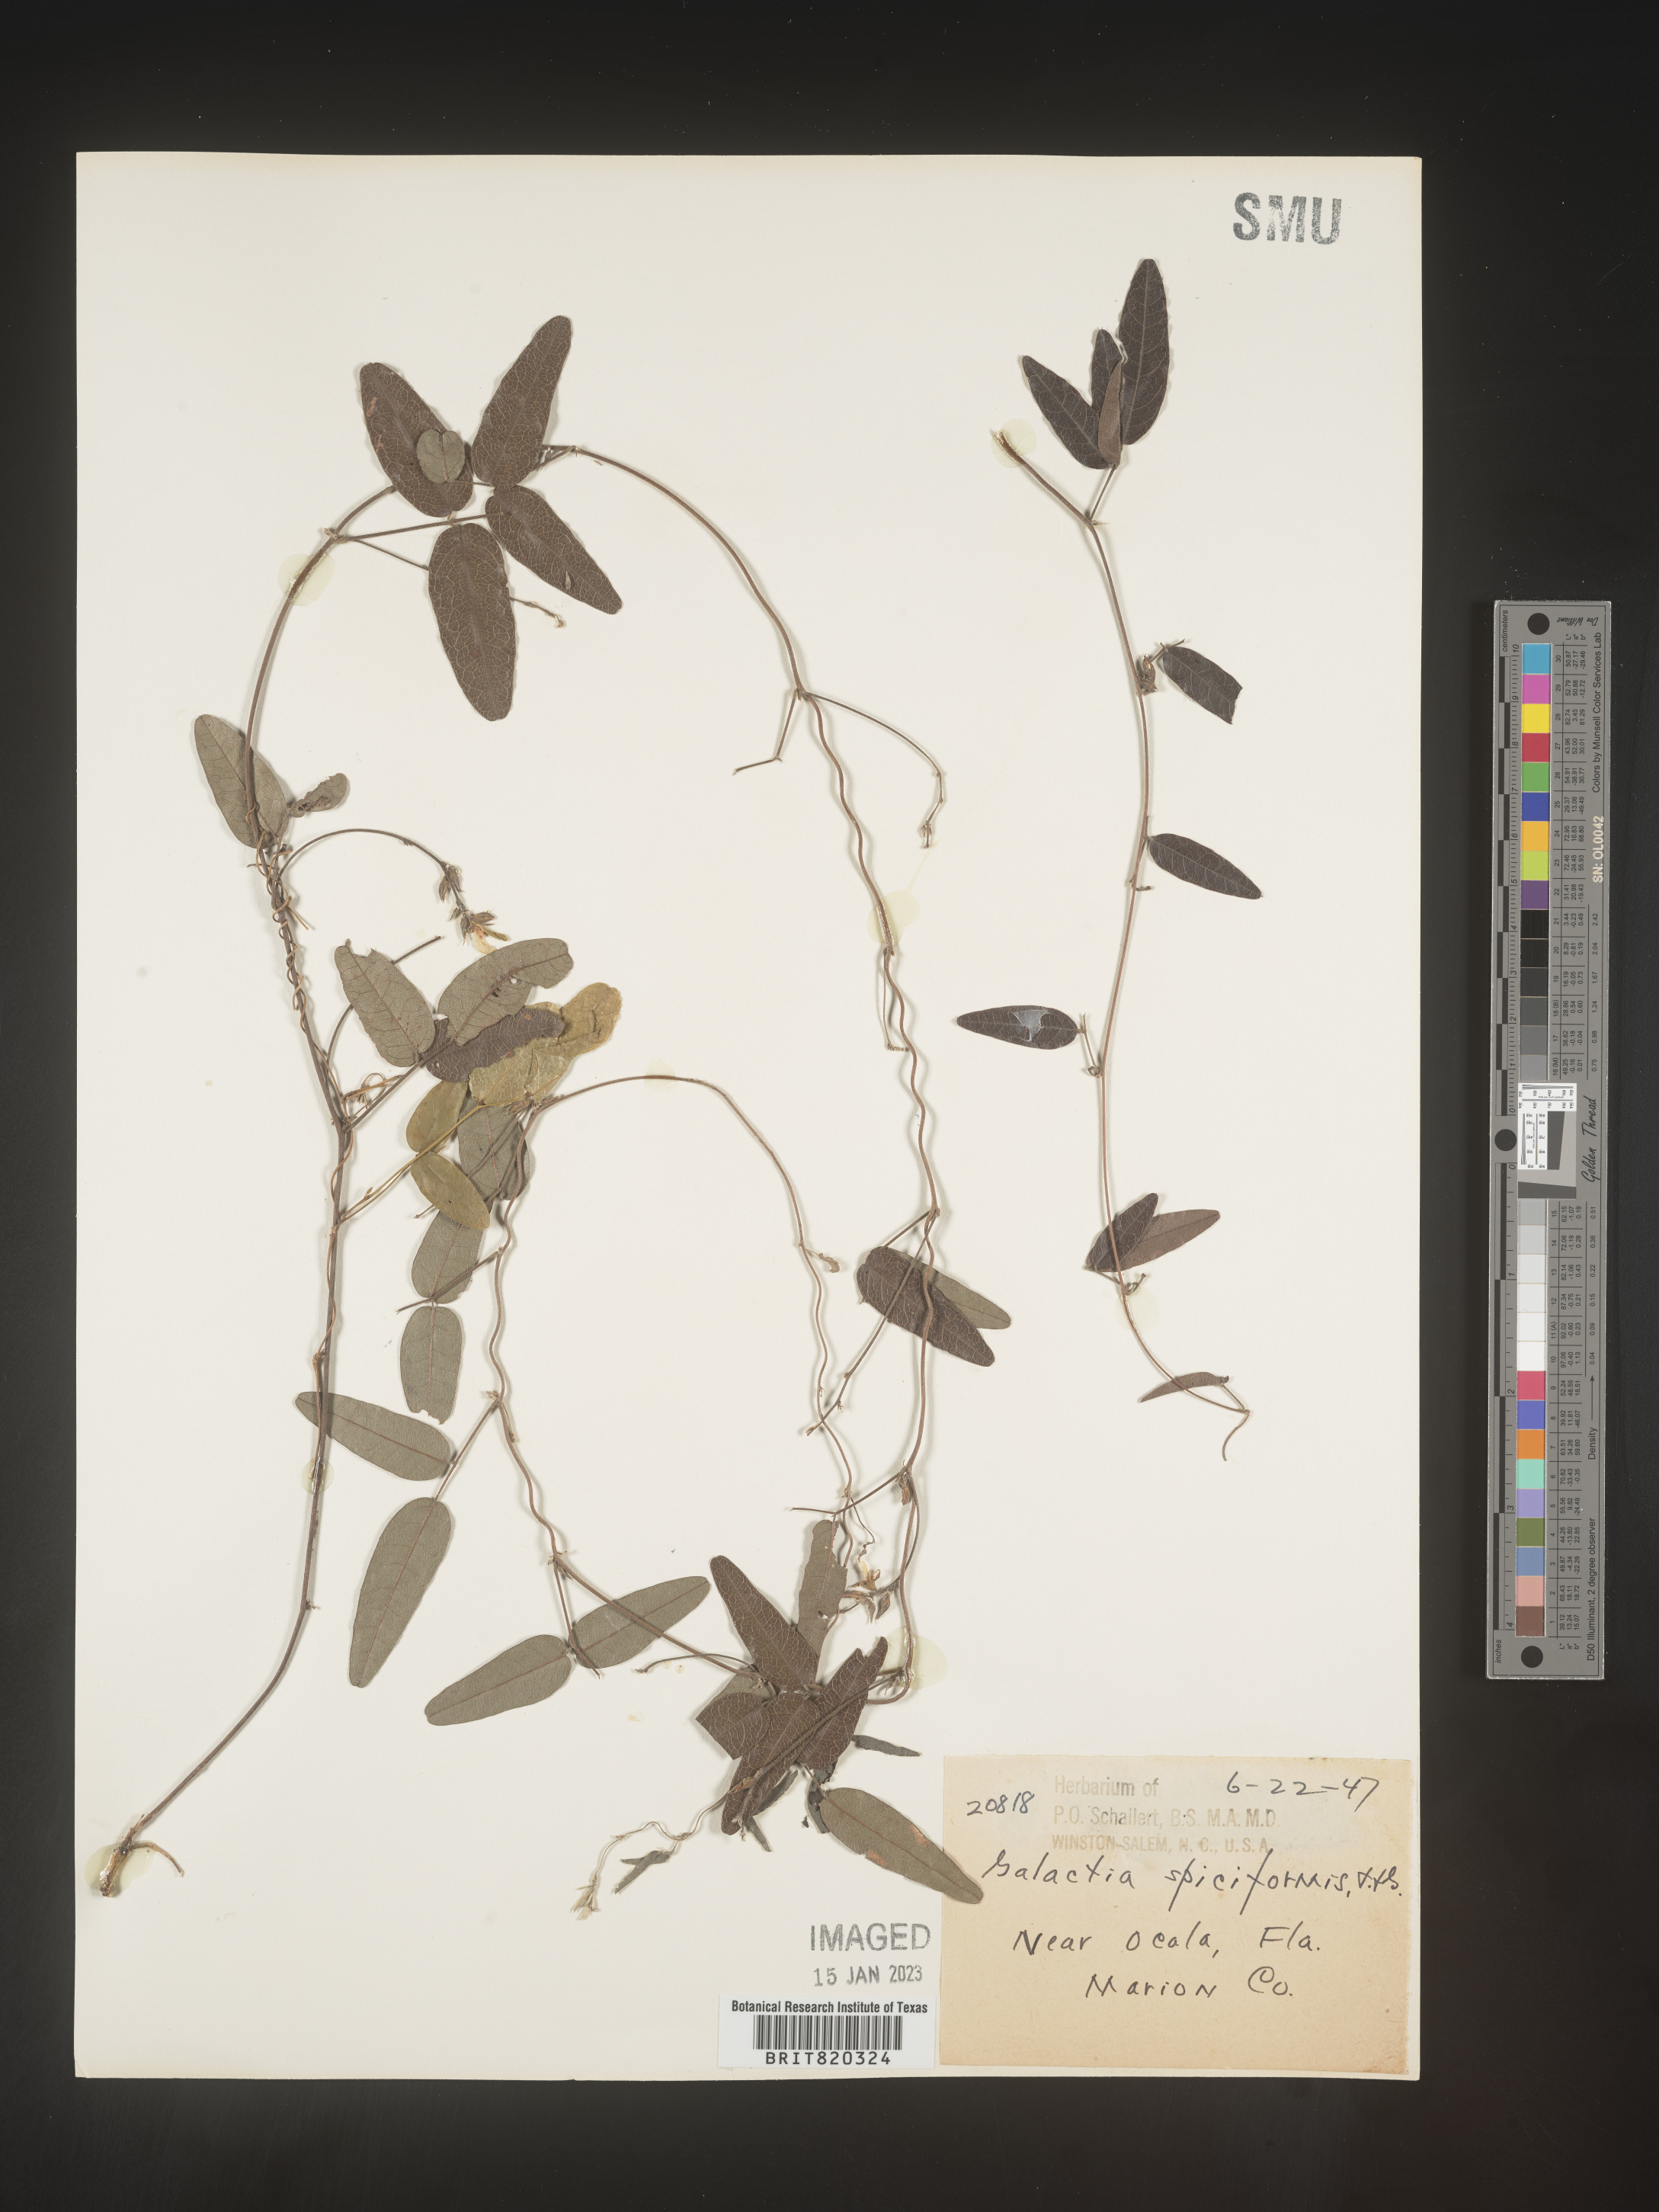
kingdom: Plantae
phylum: Tracheophyta
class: Magnoliopsida
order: Fabales
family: Fabaceae
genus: Galactia
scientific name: Galactia regularis
